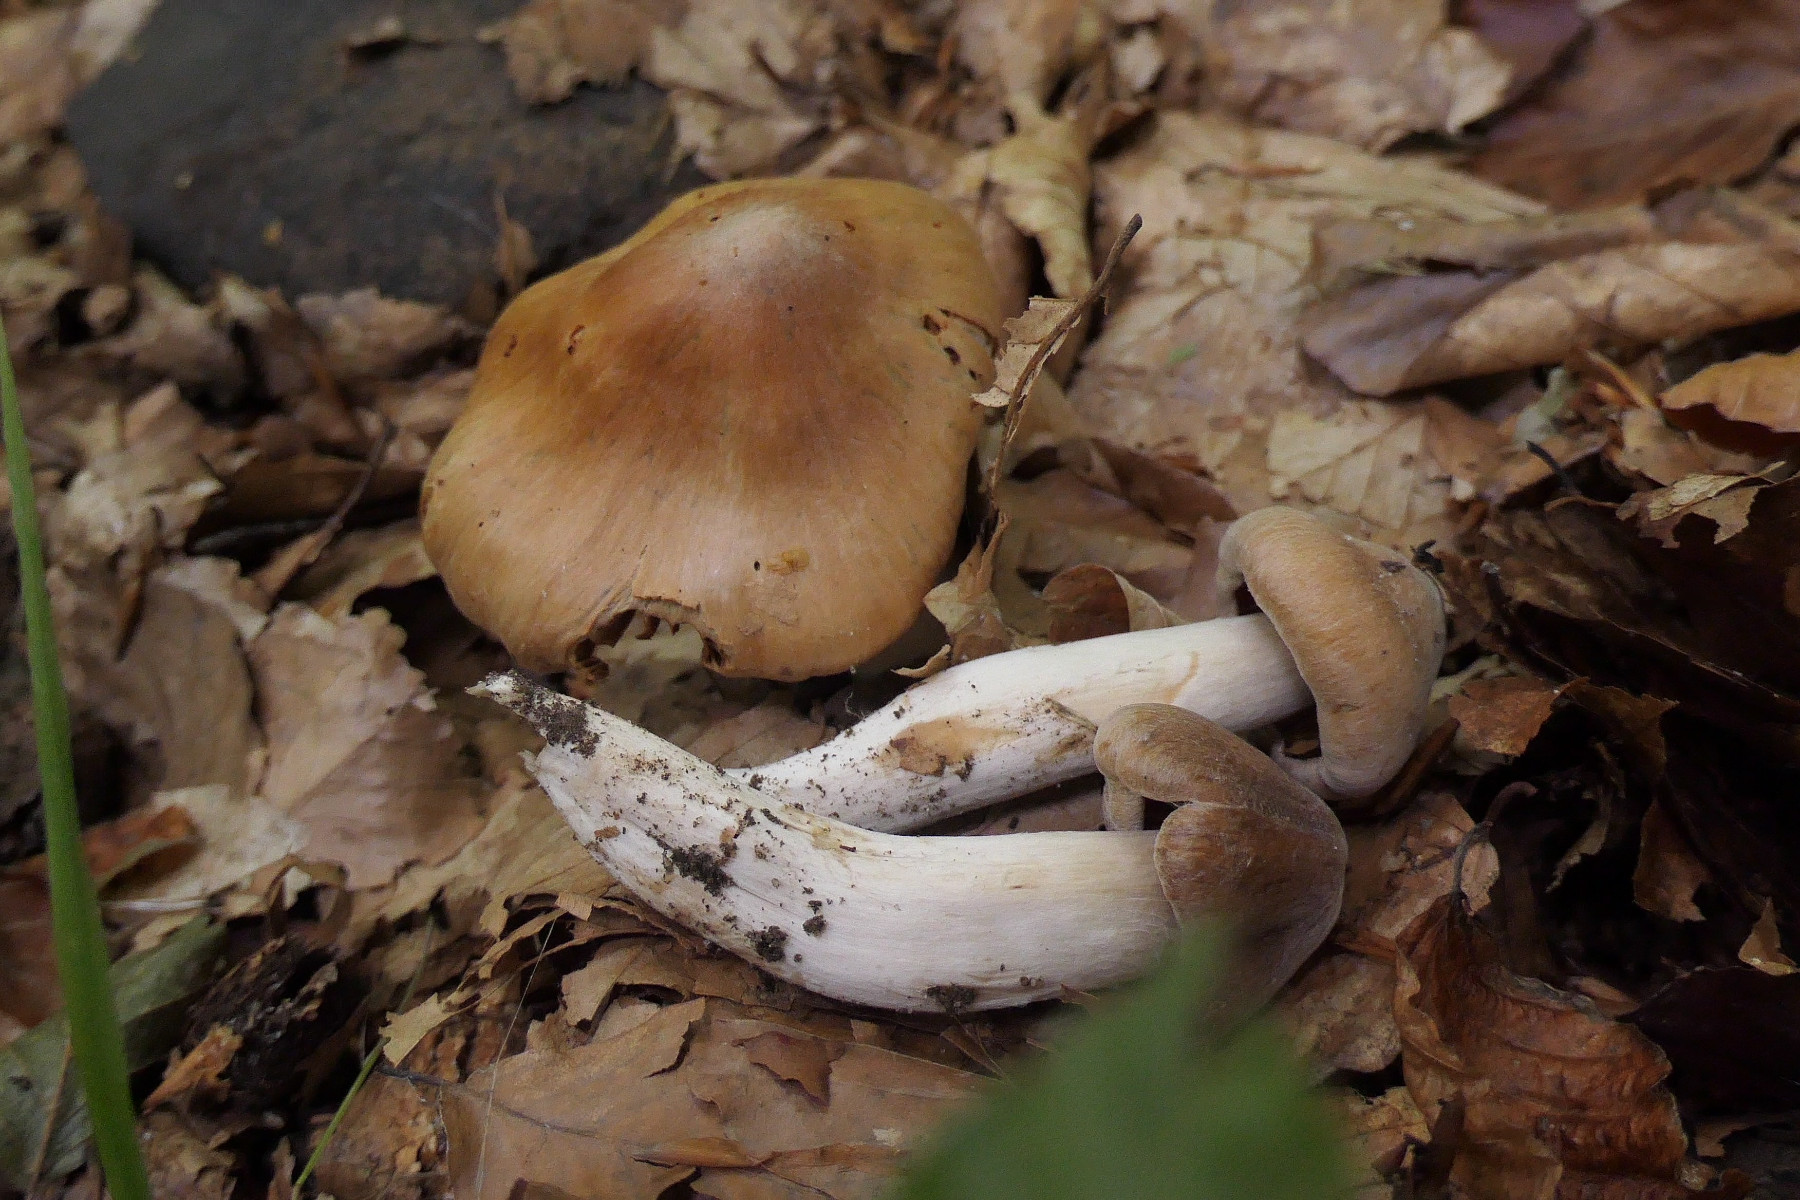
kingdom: Fungi
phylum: Basidiomycota
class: Agaricomycetes
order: Agaricales
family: Cortinariaceae
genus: Cortinarius
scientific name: Cortinarius pruinatus
